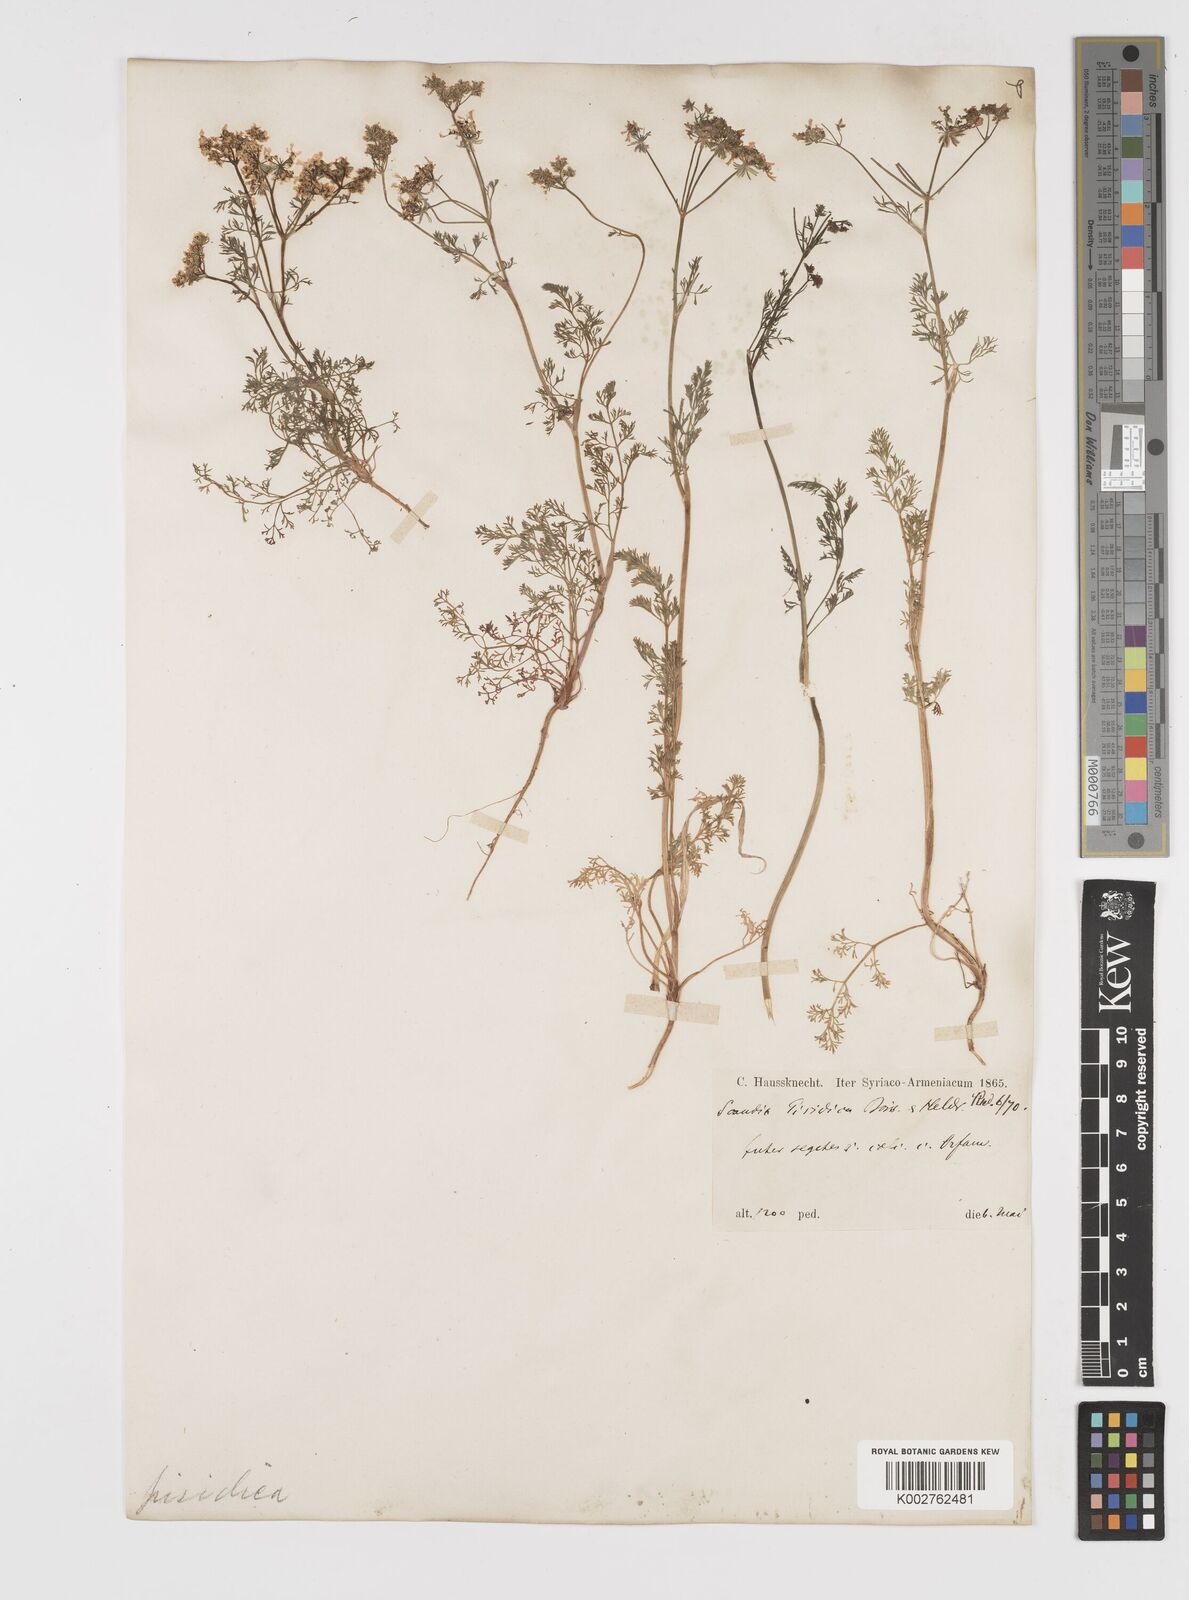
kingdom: Plantae
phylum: Tracheophyta
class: Magnoliopsida
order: Apiales
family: Apiaceae
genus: Scandix
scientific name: Scandix iberica
